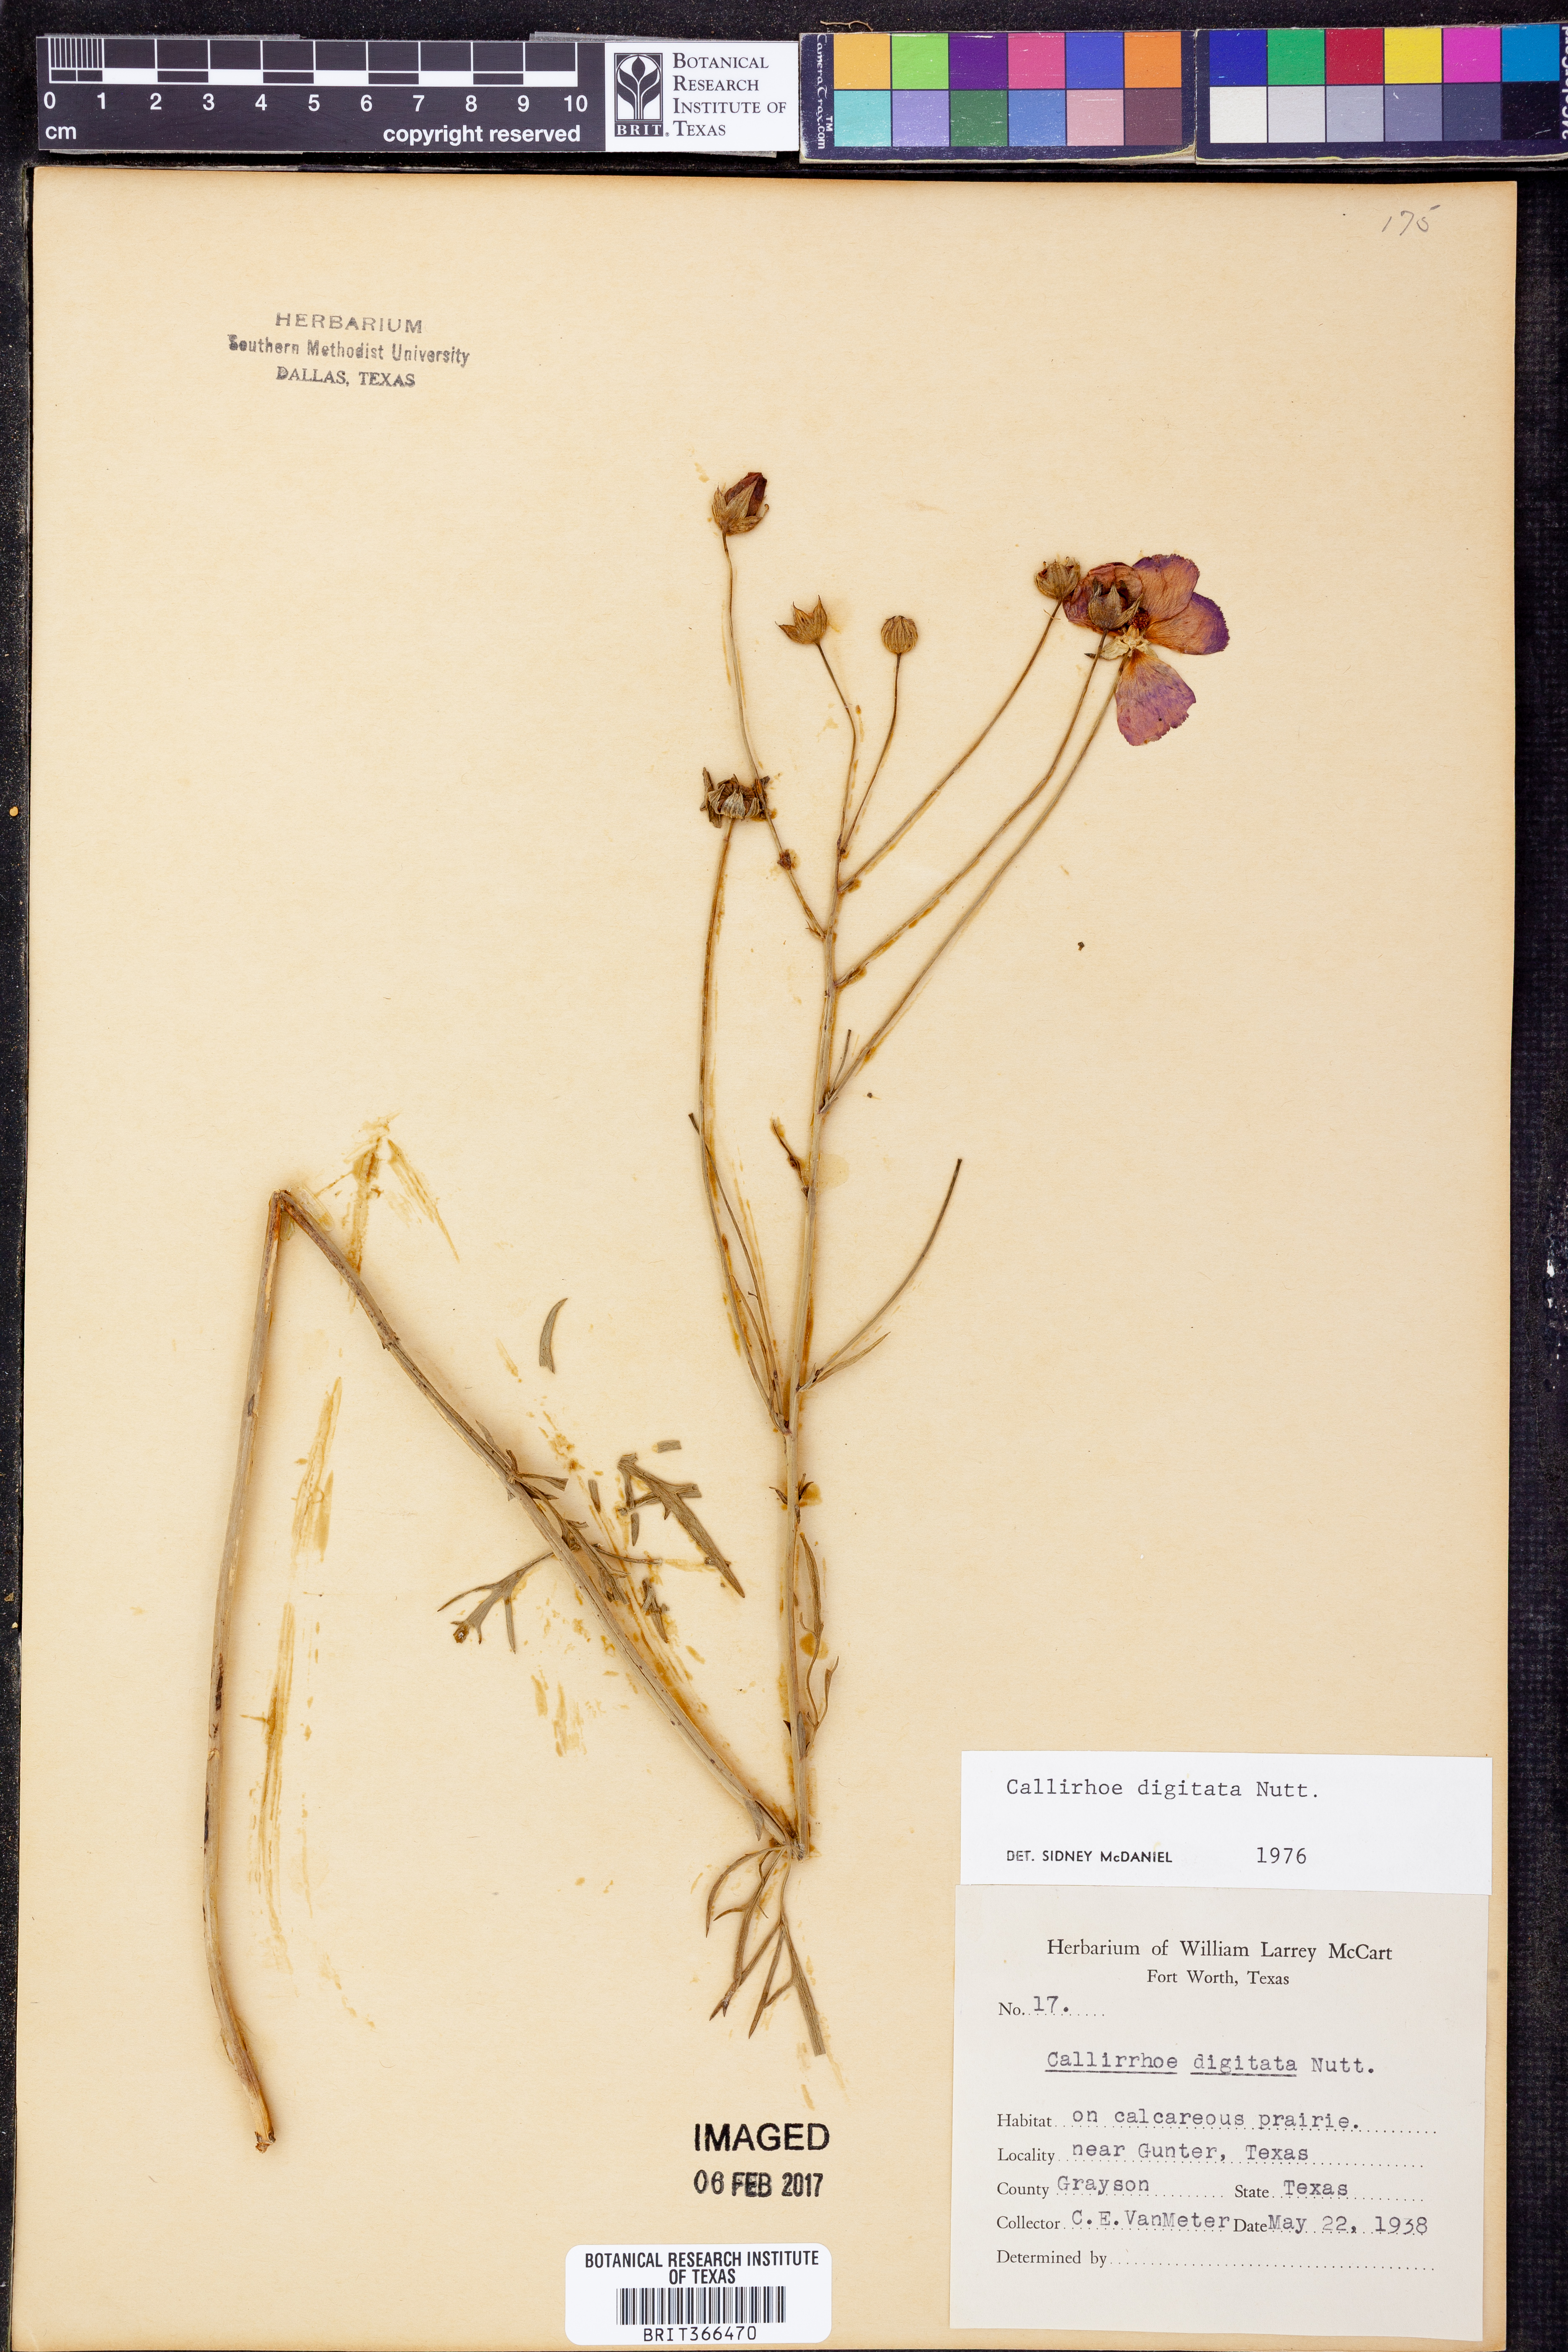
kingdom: Plantae
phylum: Tracheophyta
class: Magnoliopsida
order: Malvales
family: Malvaceae
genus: Callirhoe
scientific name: Callirhoe digitata
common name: Finger poppy-mallow
